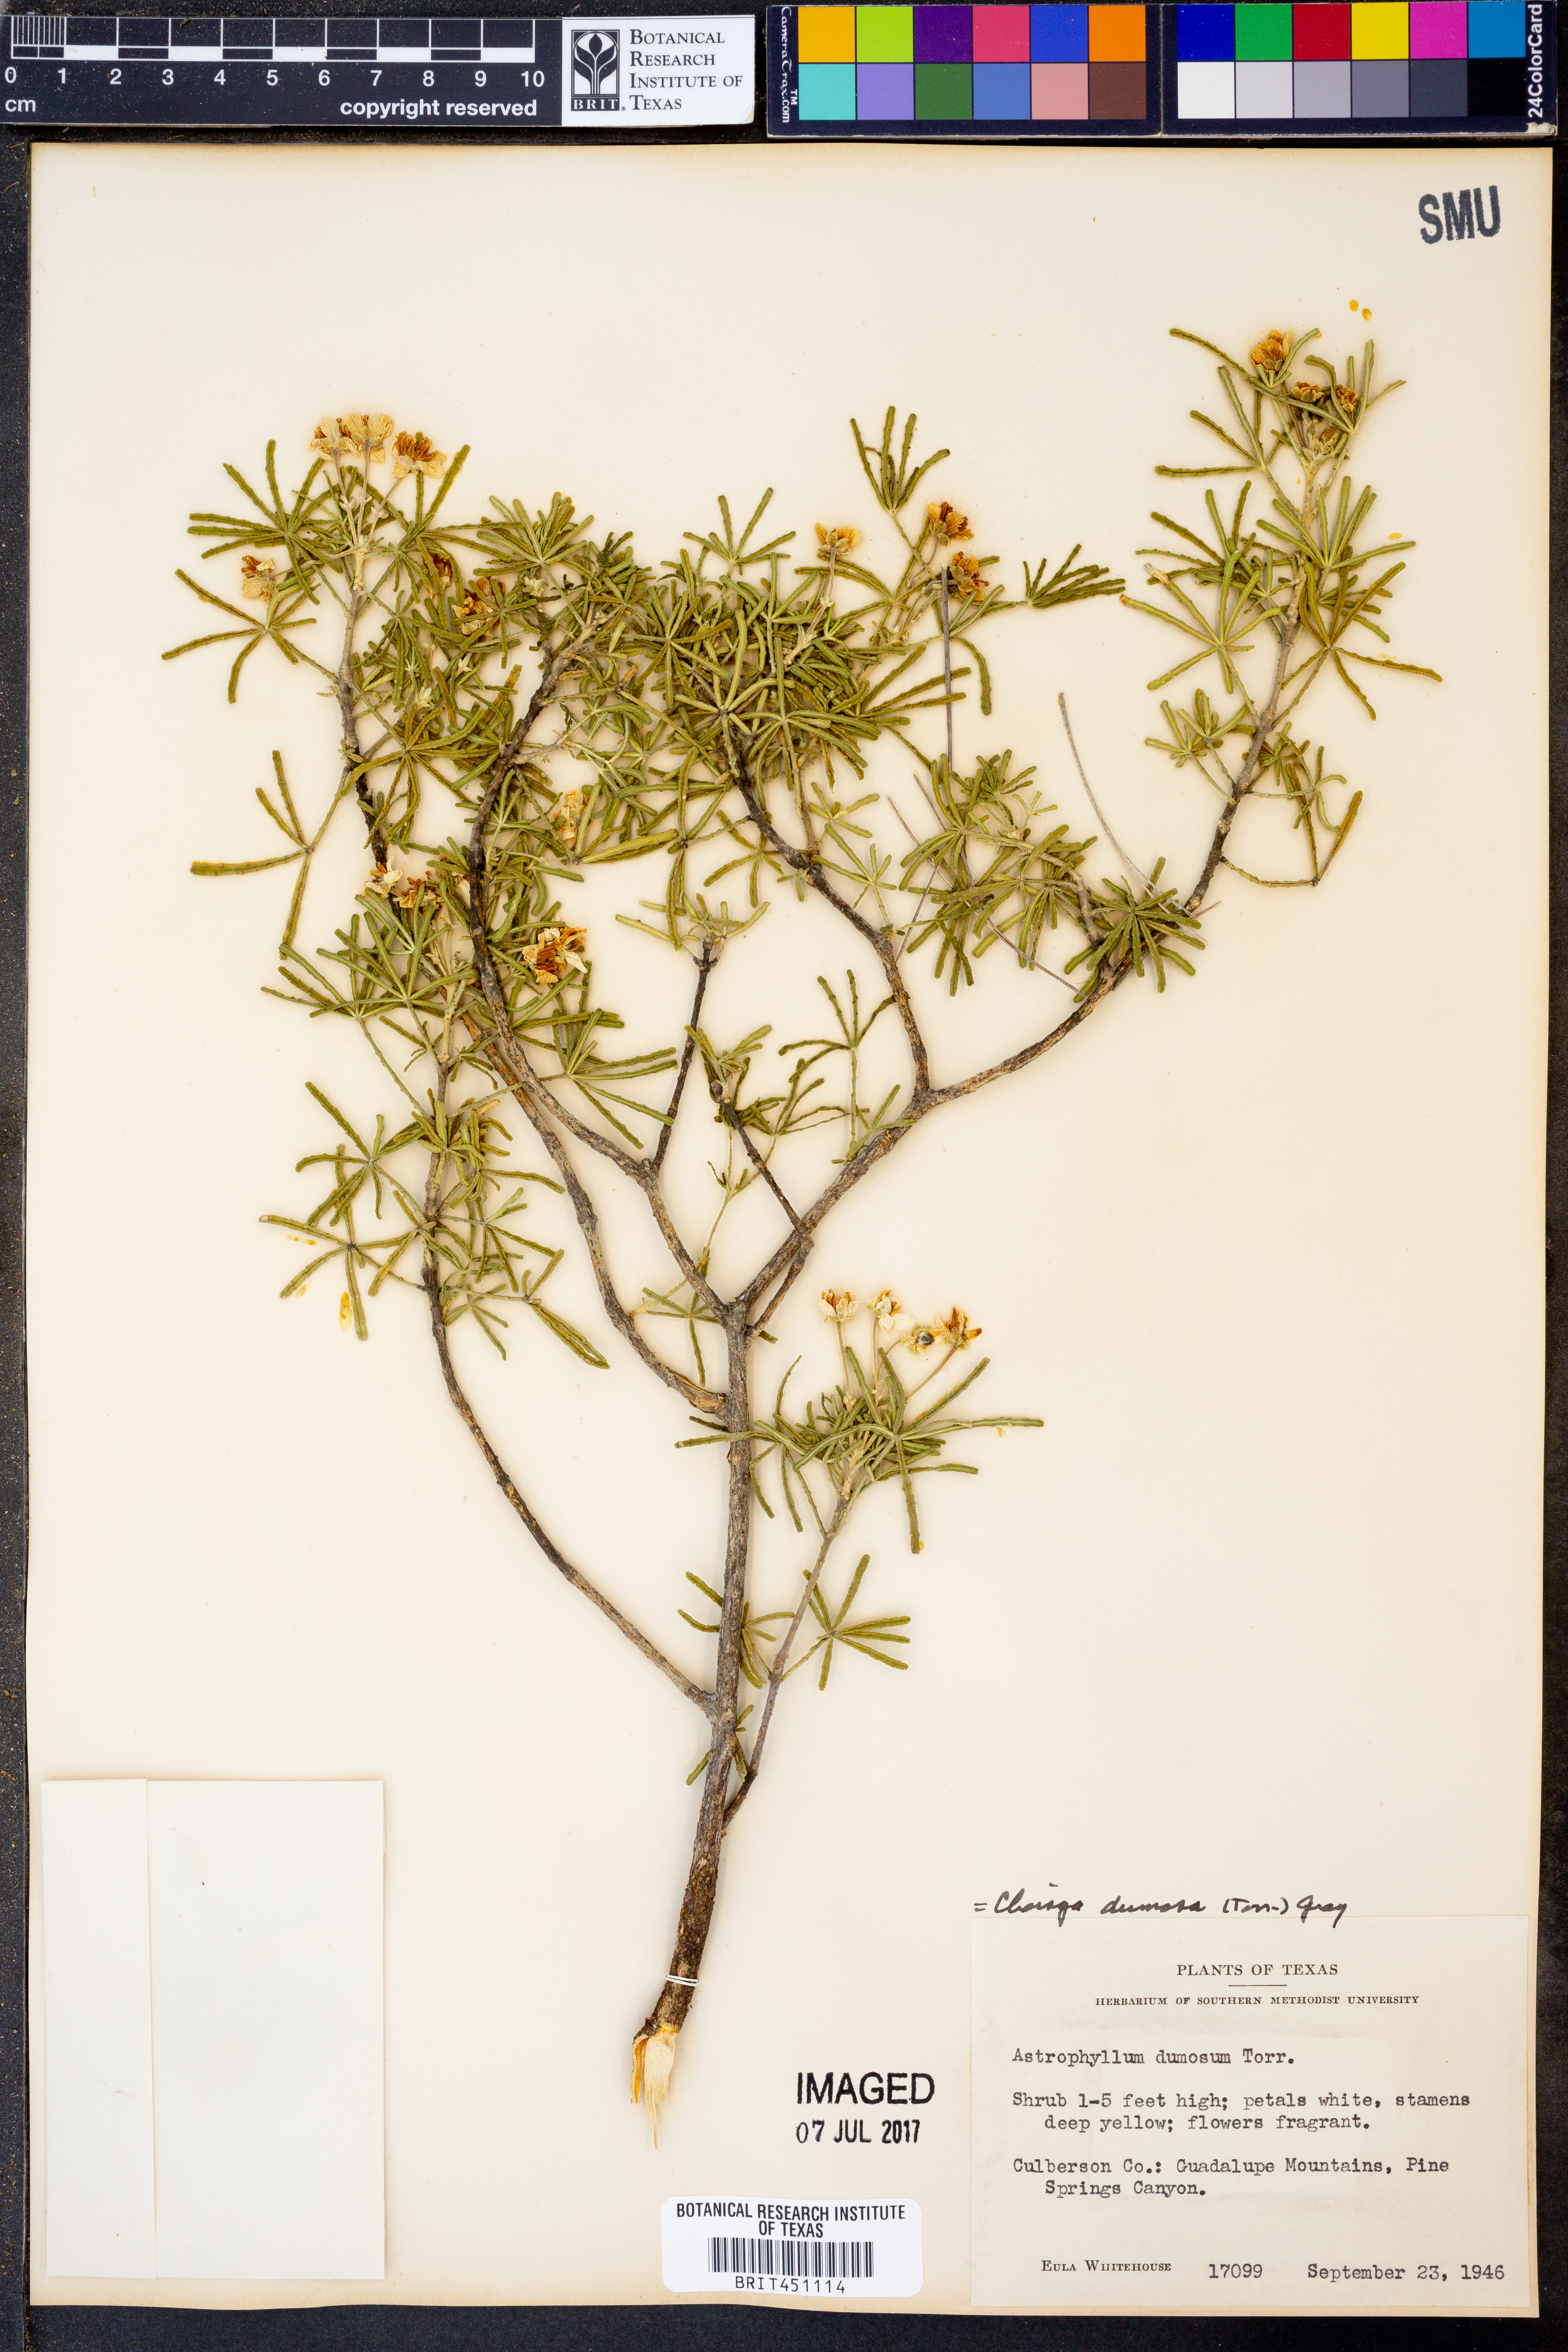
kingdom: Plantae
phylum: Tracheophyta
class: Magnoliopsida
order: Sapindales
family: Rutaceae
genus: Choisya
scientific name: Choisya dumosa
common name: Mexican-orange
